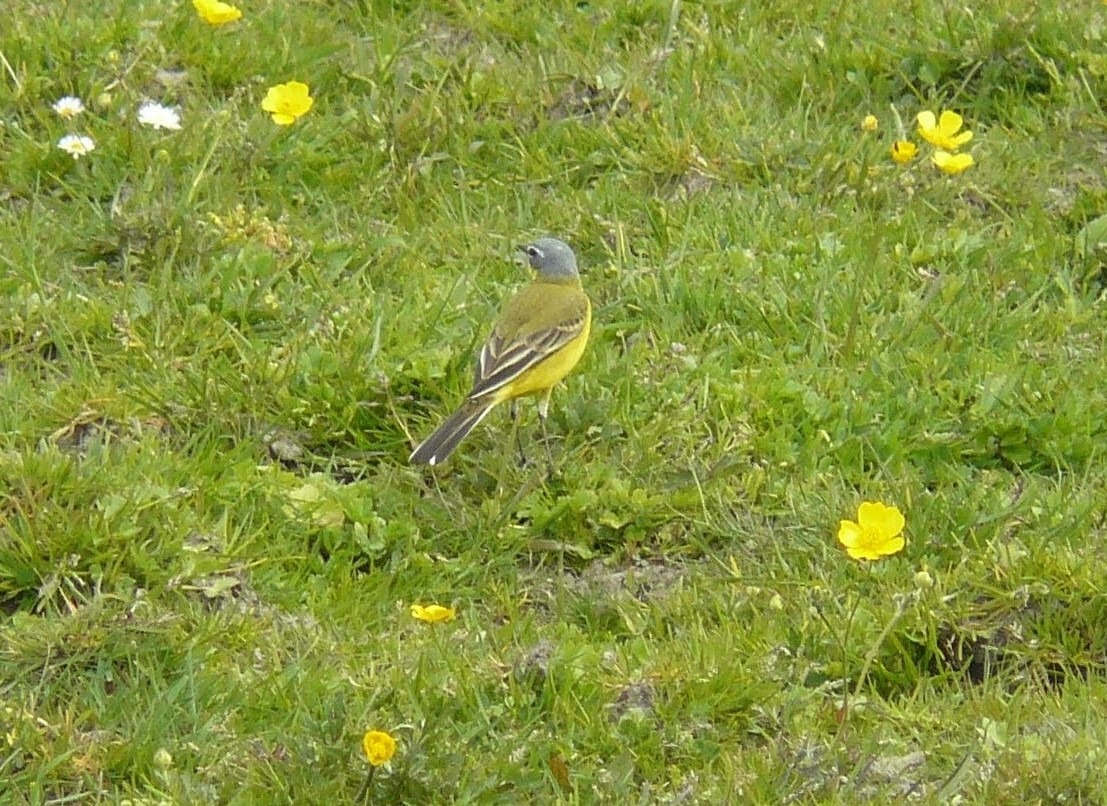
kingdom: Animalia
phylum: Chordata
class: Aves
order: Passeriformes
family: Motacillidae
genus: Motacilla
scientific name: Motacilla flava
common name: Gul vipstjert
